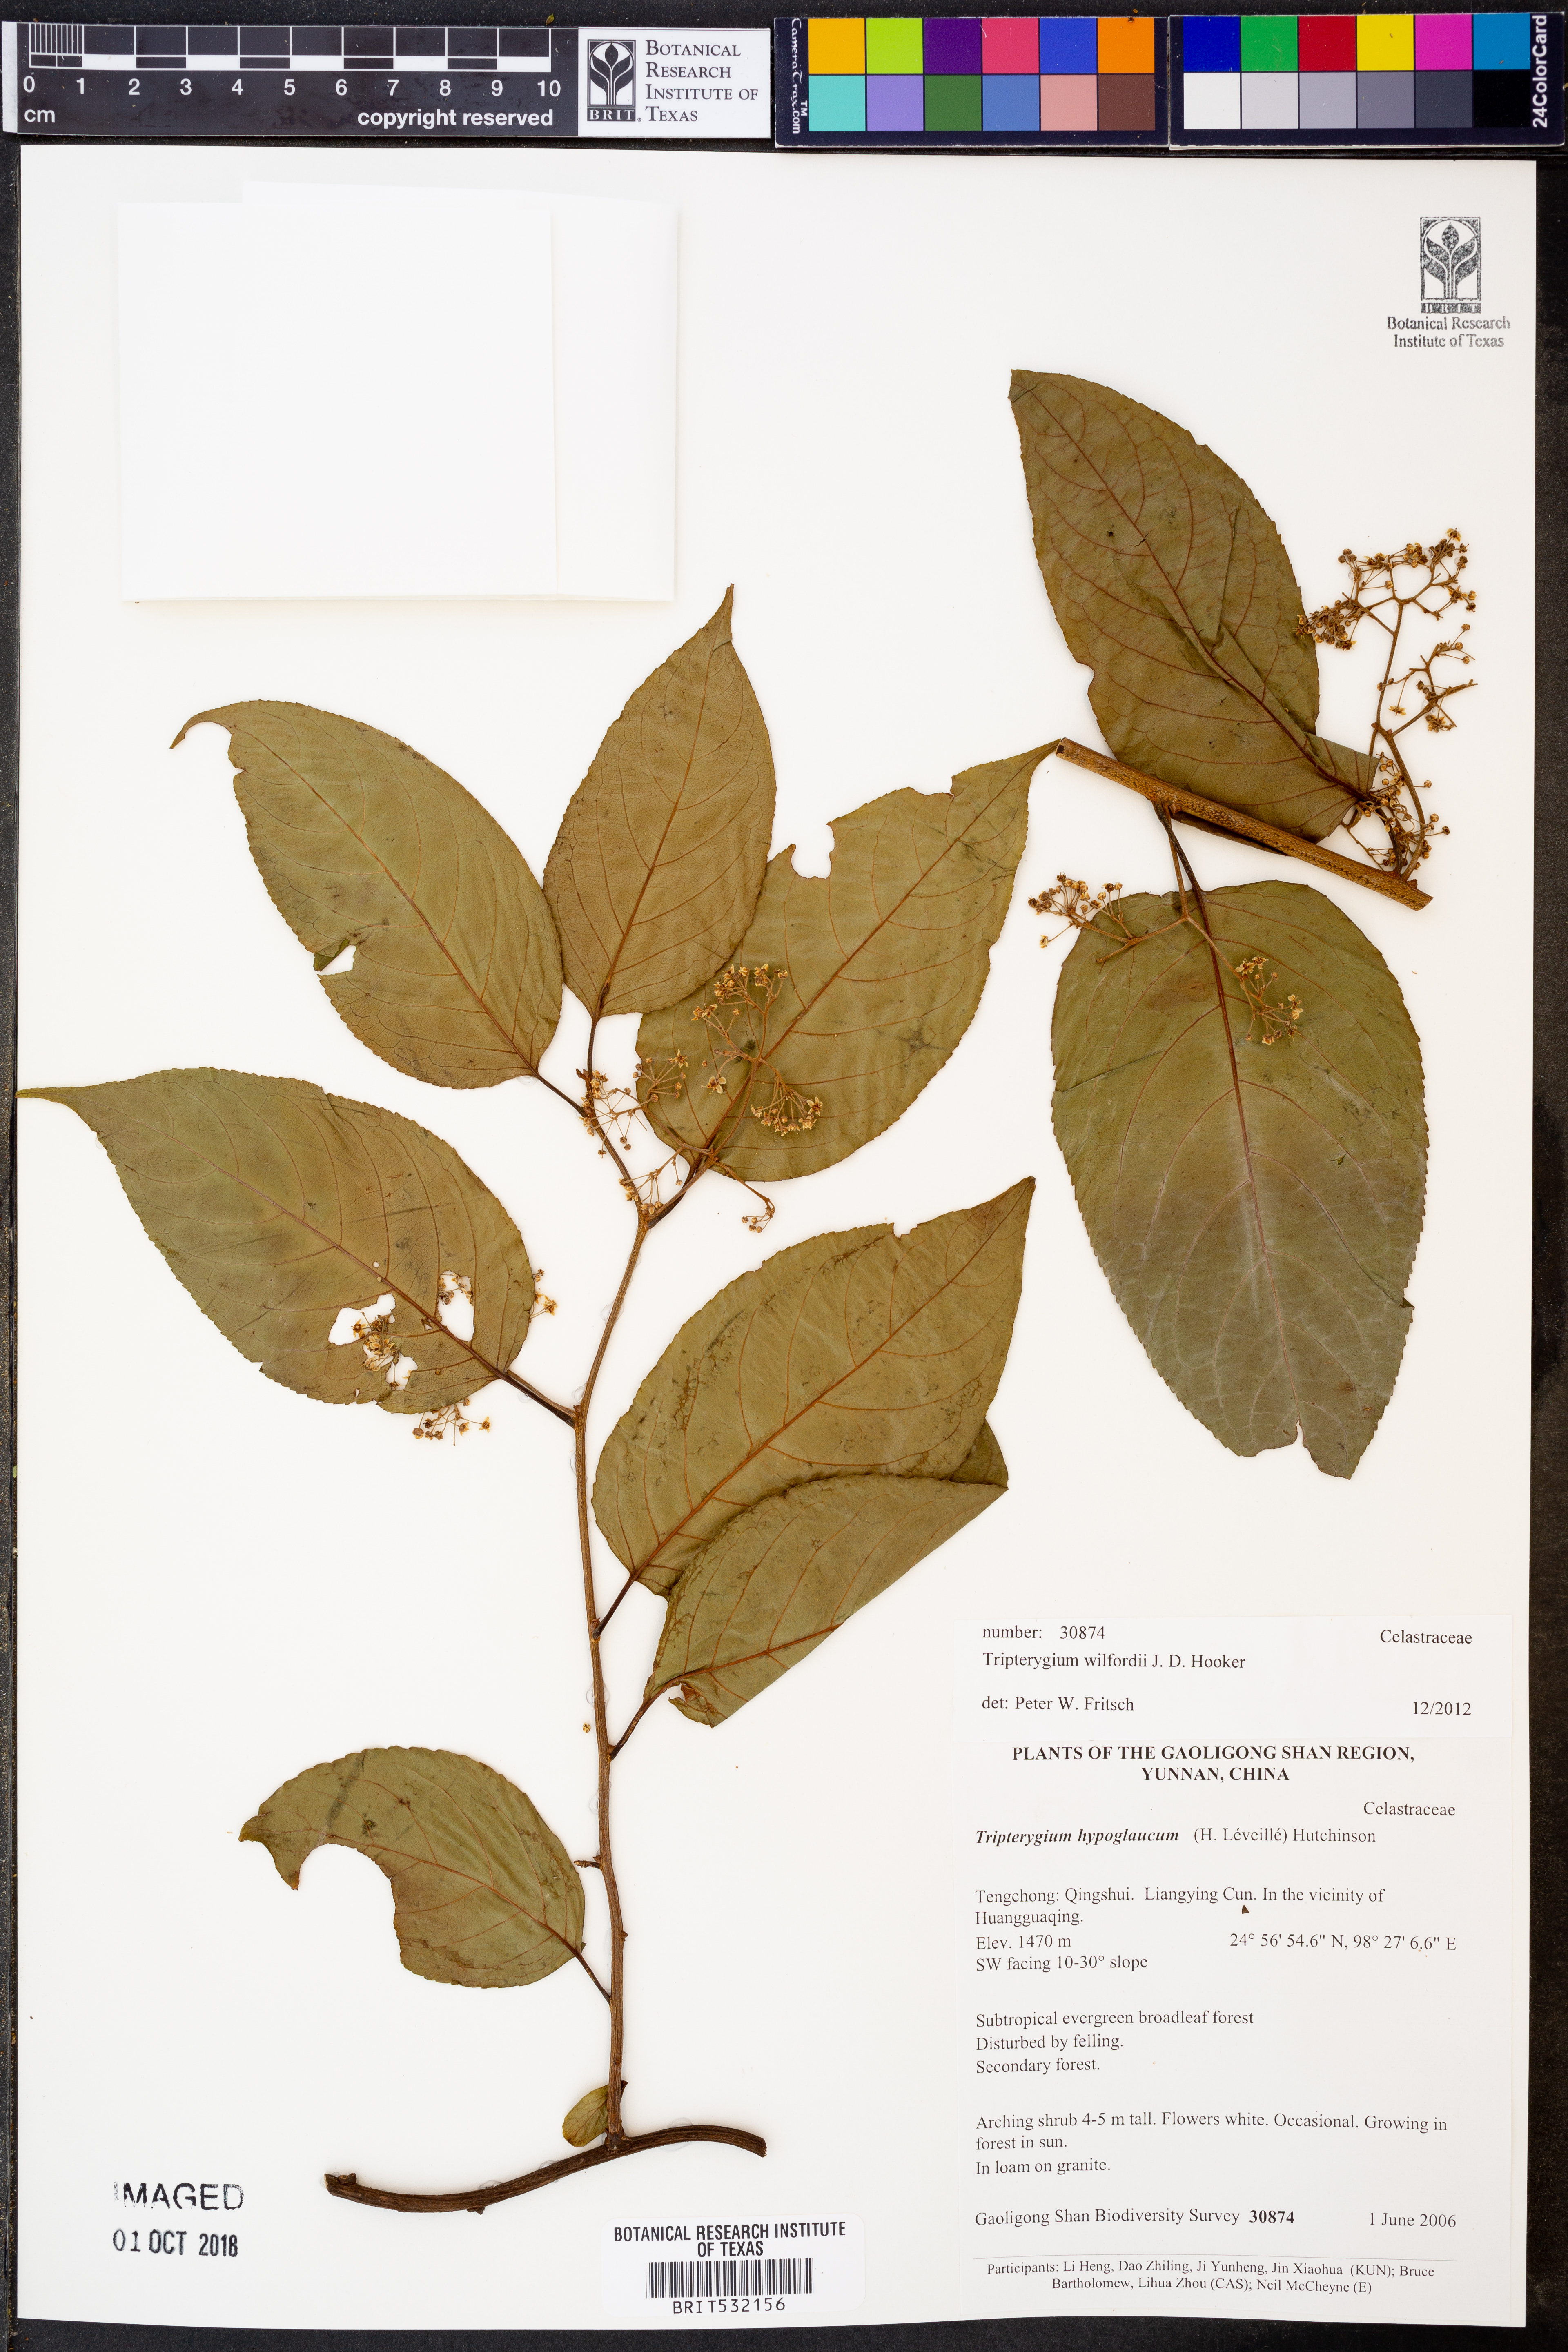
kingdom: Plantae
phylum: Tracheophyta
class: Magnoliopsida
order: Celastrales
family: Celastraceae
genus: Tripterygium
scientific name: Tripterygium wilfordii
